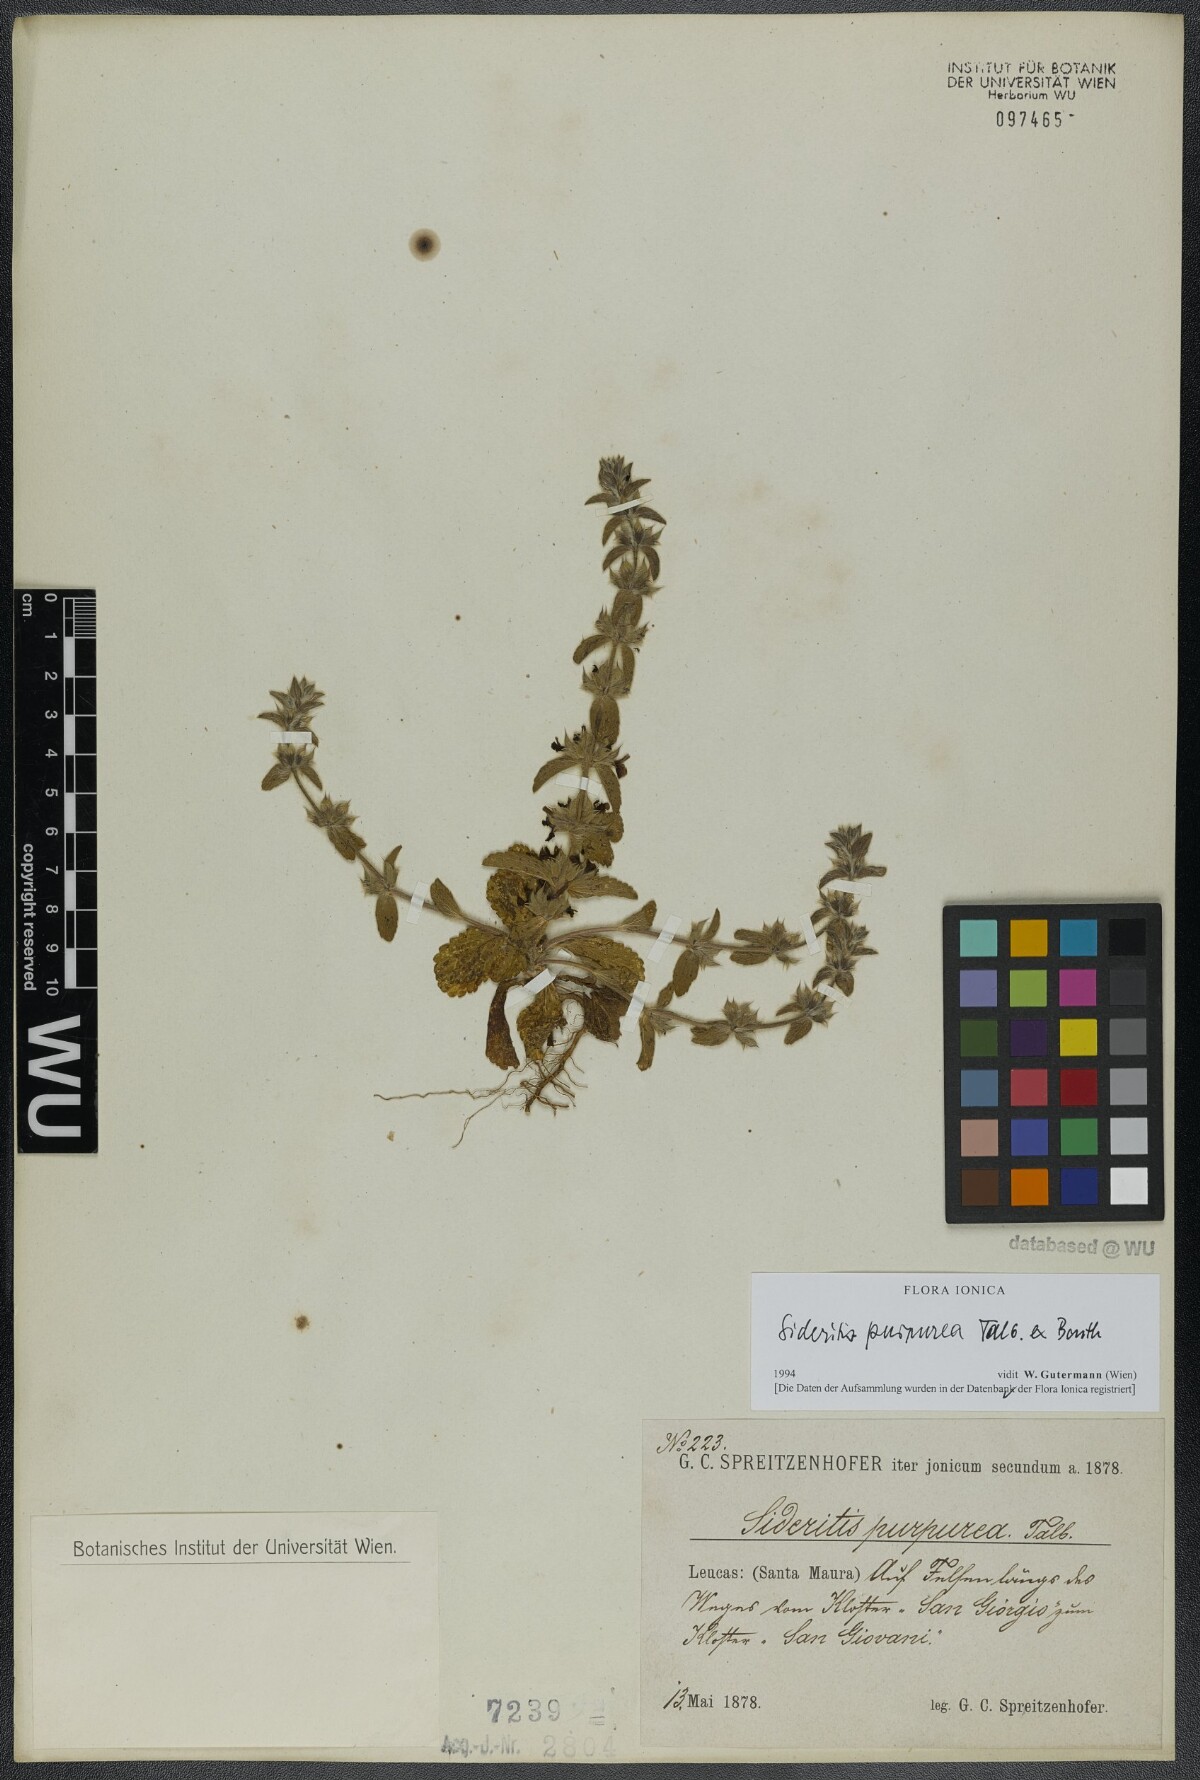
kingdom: Plantae
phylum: Tracheophyta
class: Magnoliopsida
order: Lamiales
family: Lamiaceae
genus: Sideritis
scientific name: Sideritis romana
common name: Simplebeak ironwort
